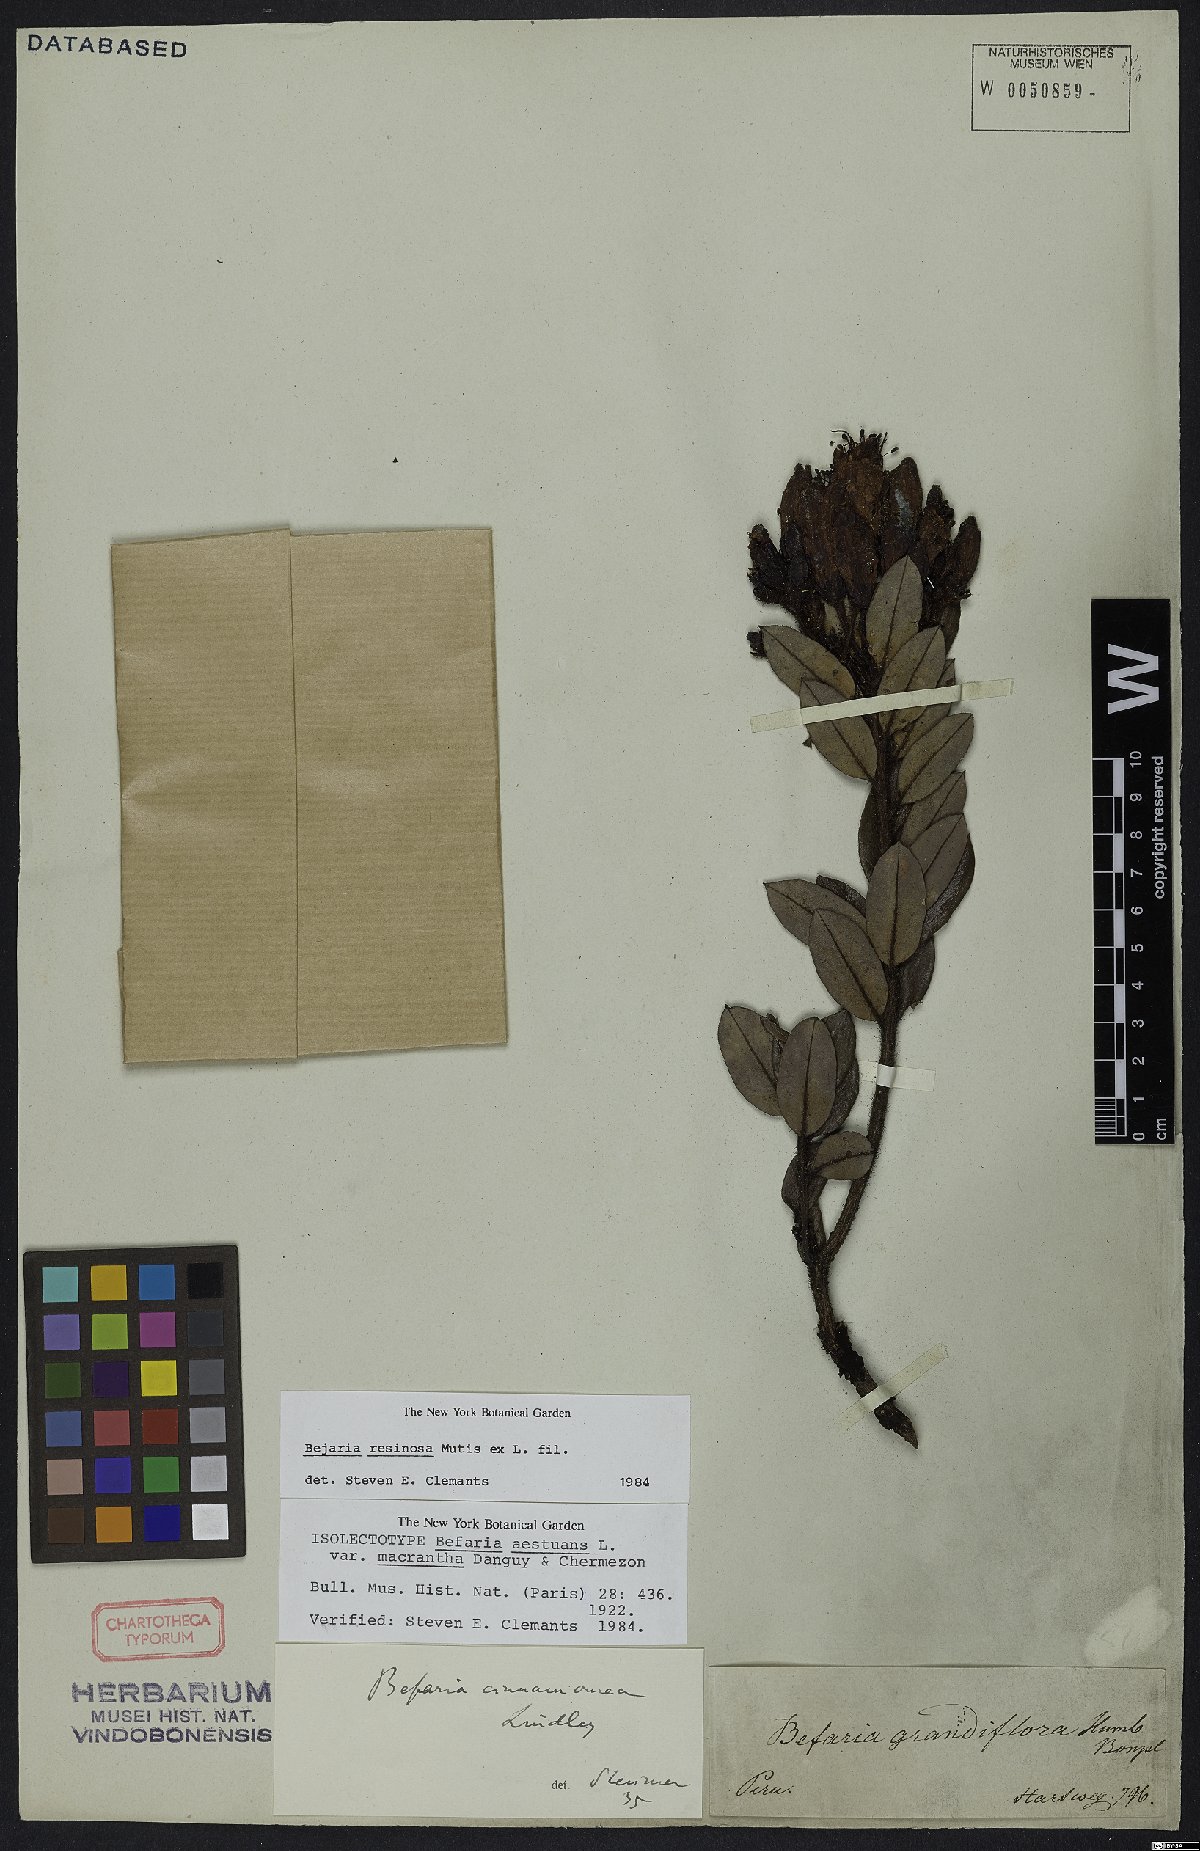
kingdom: Plantae
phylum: Tracheophyta
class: Magnoliopsida
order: Ericales
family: Ericaceae
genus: Bejaria
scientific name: Bejaria resinosa
